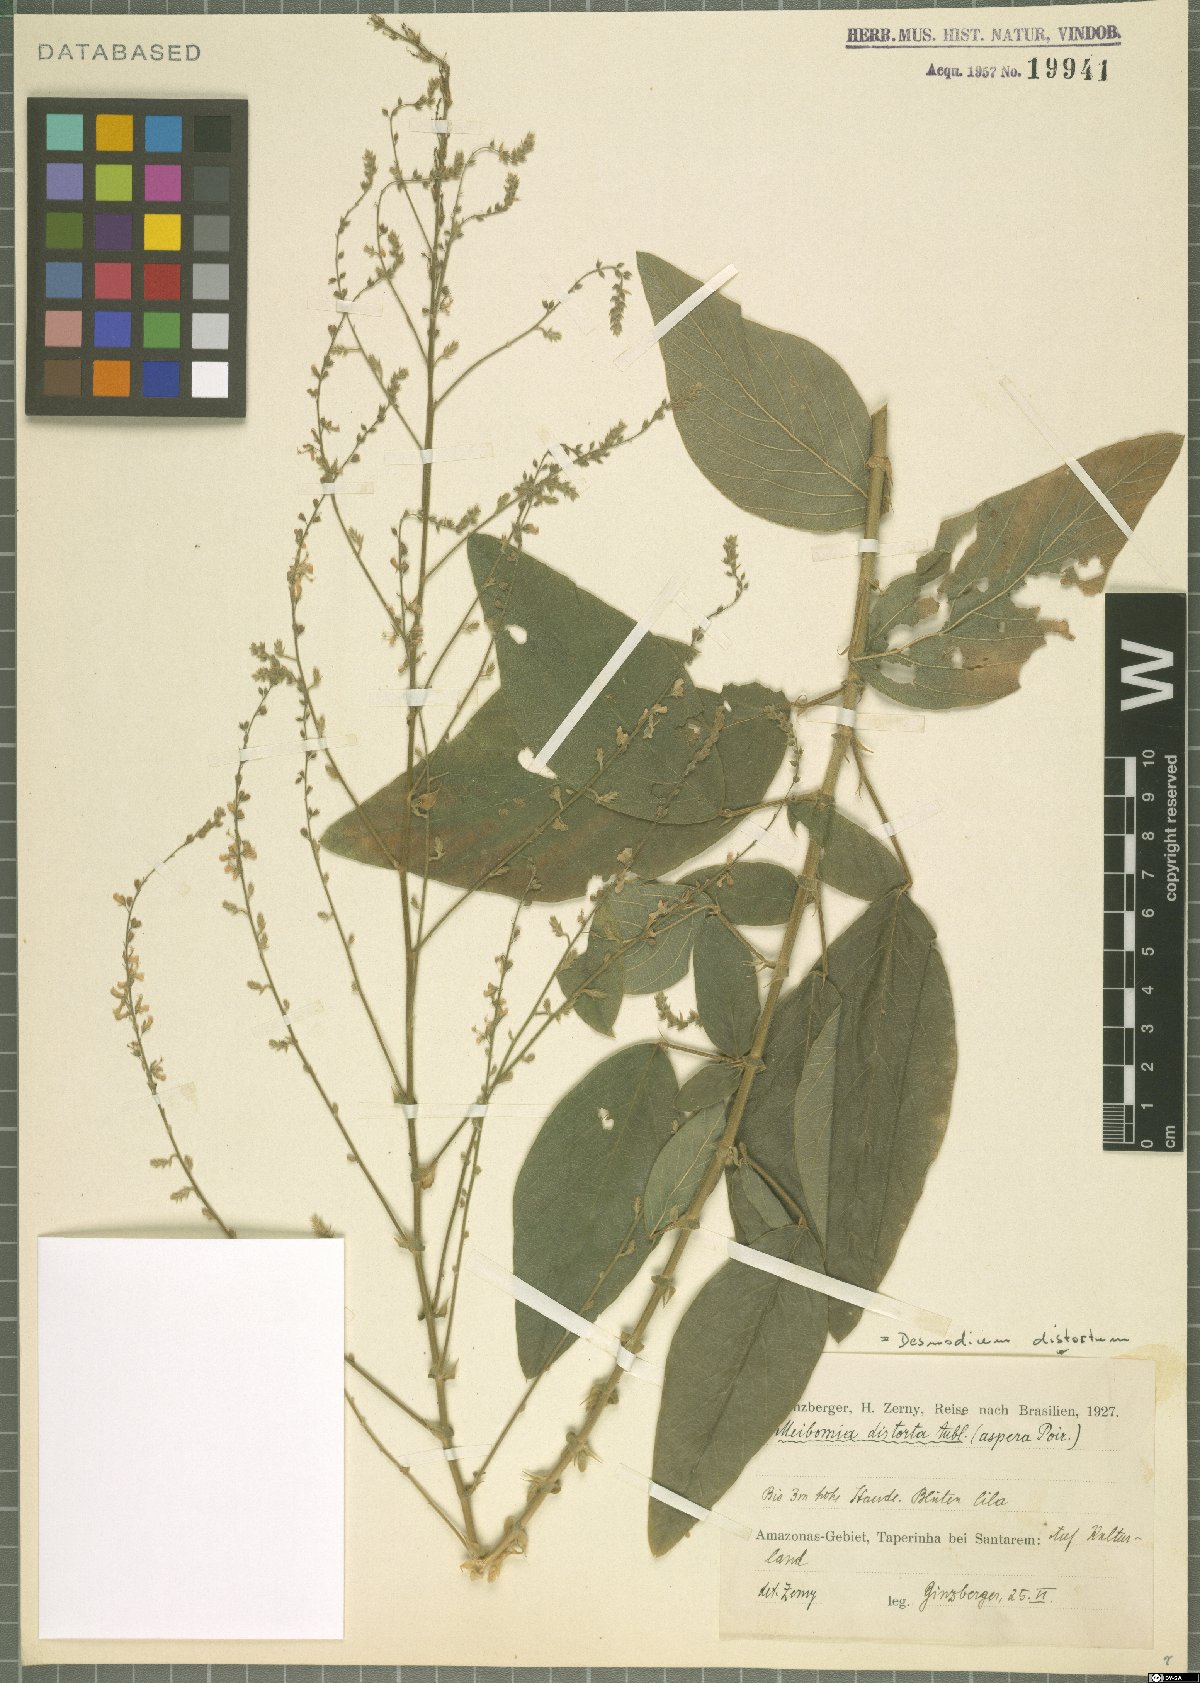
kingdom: Plantae
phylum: Tracheophyta
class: Magnoliopsida
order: Fabales
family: Fabaceae
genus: Desmodium
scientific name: Desmodium distortum
